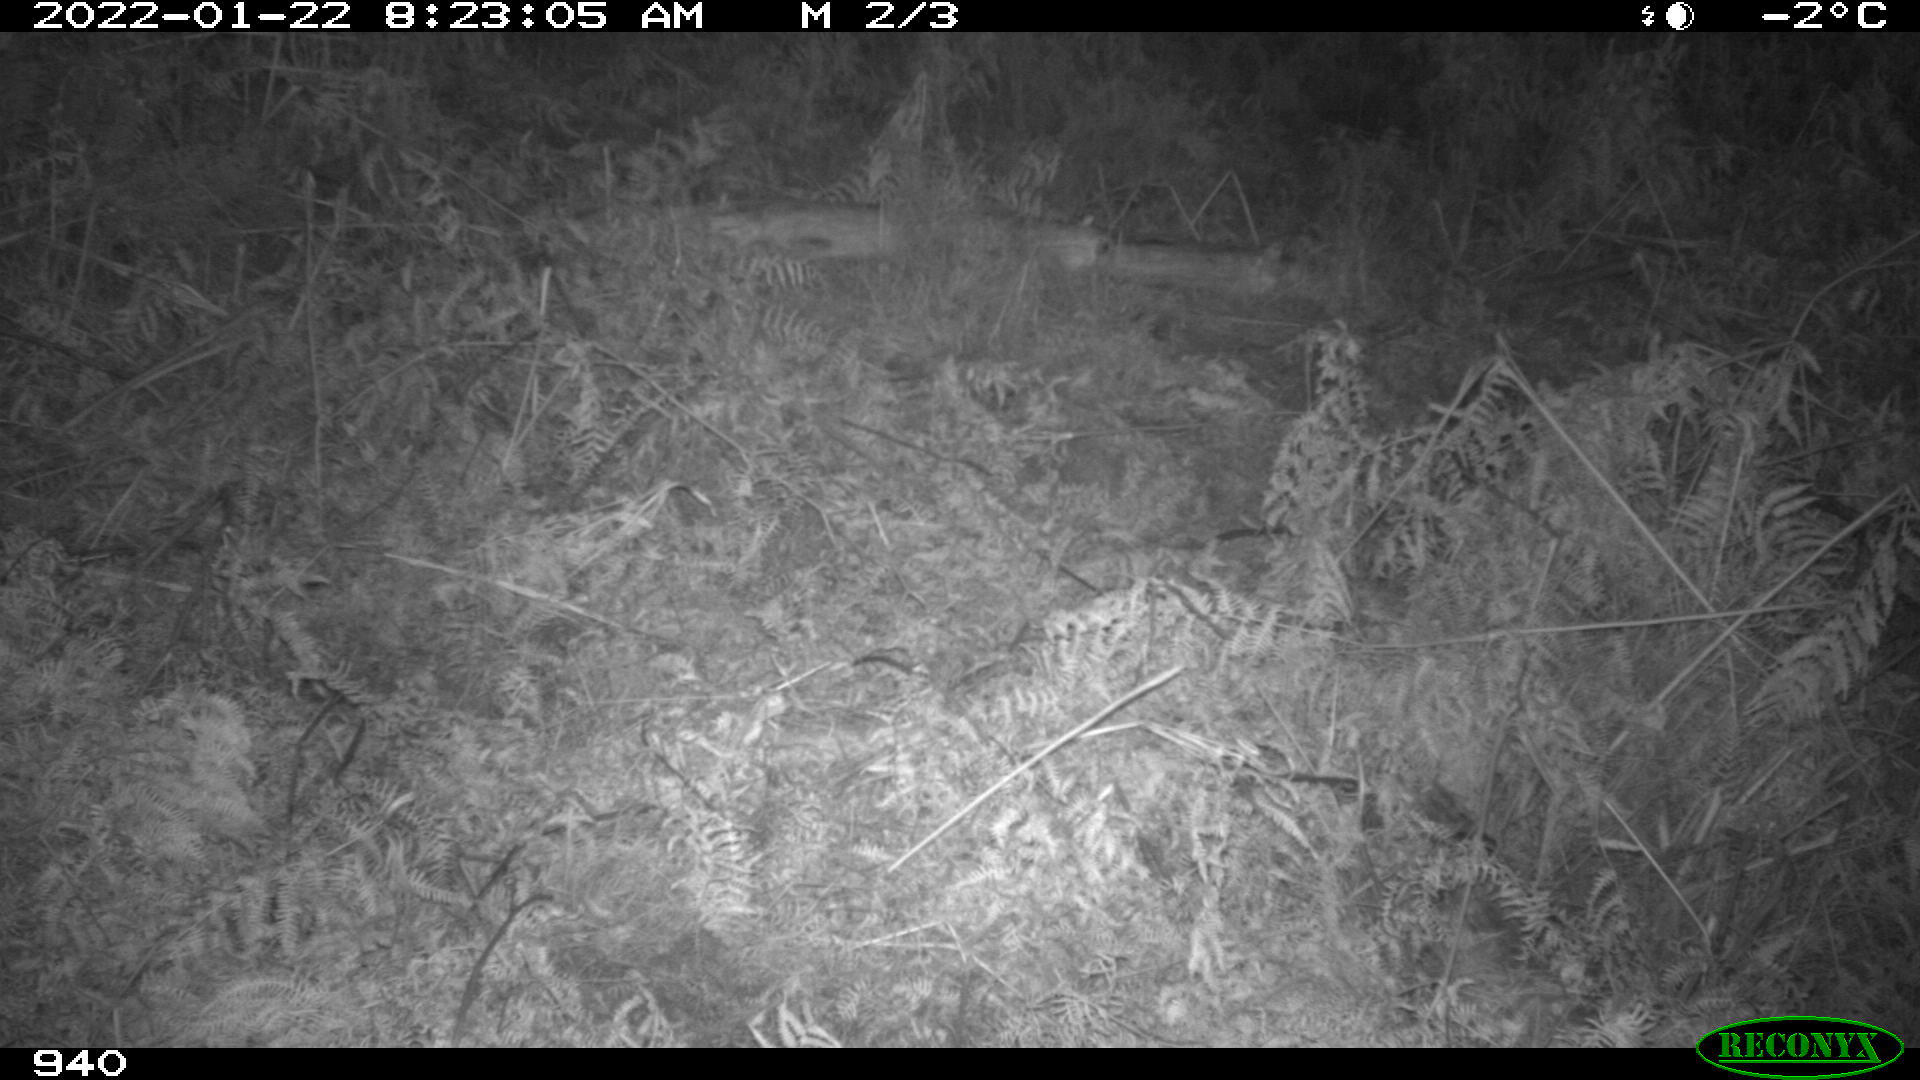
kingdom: Animalia
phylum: Chordata
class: Mammalia
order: Carnivora
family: Canidae
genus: Canis
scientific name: Canis lupus
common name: Gray wolf
